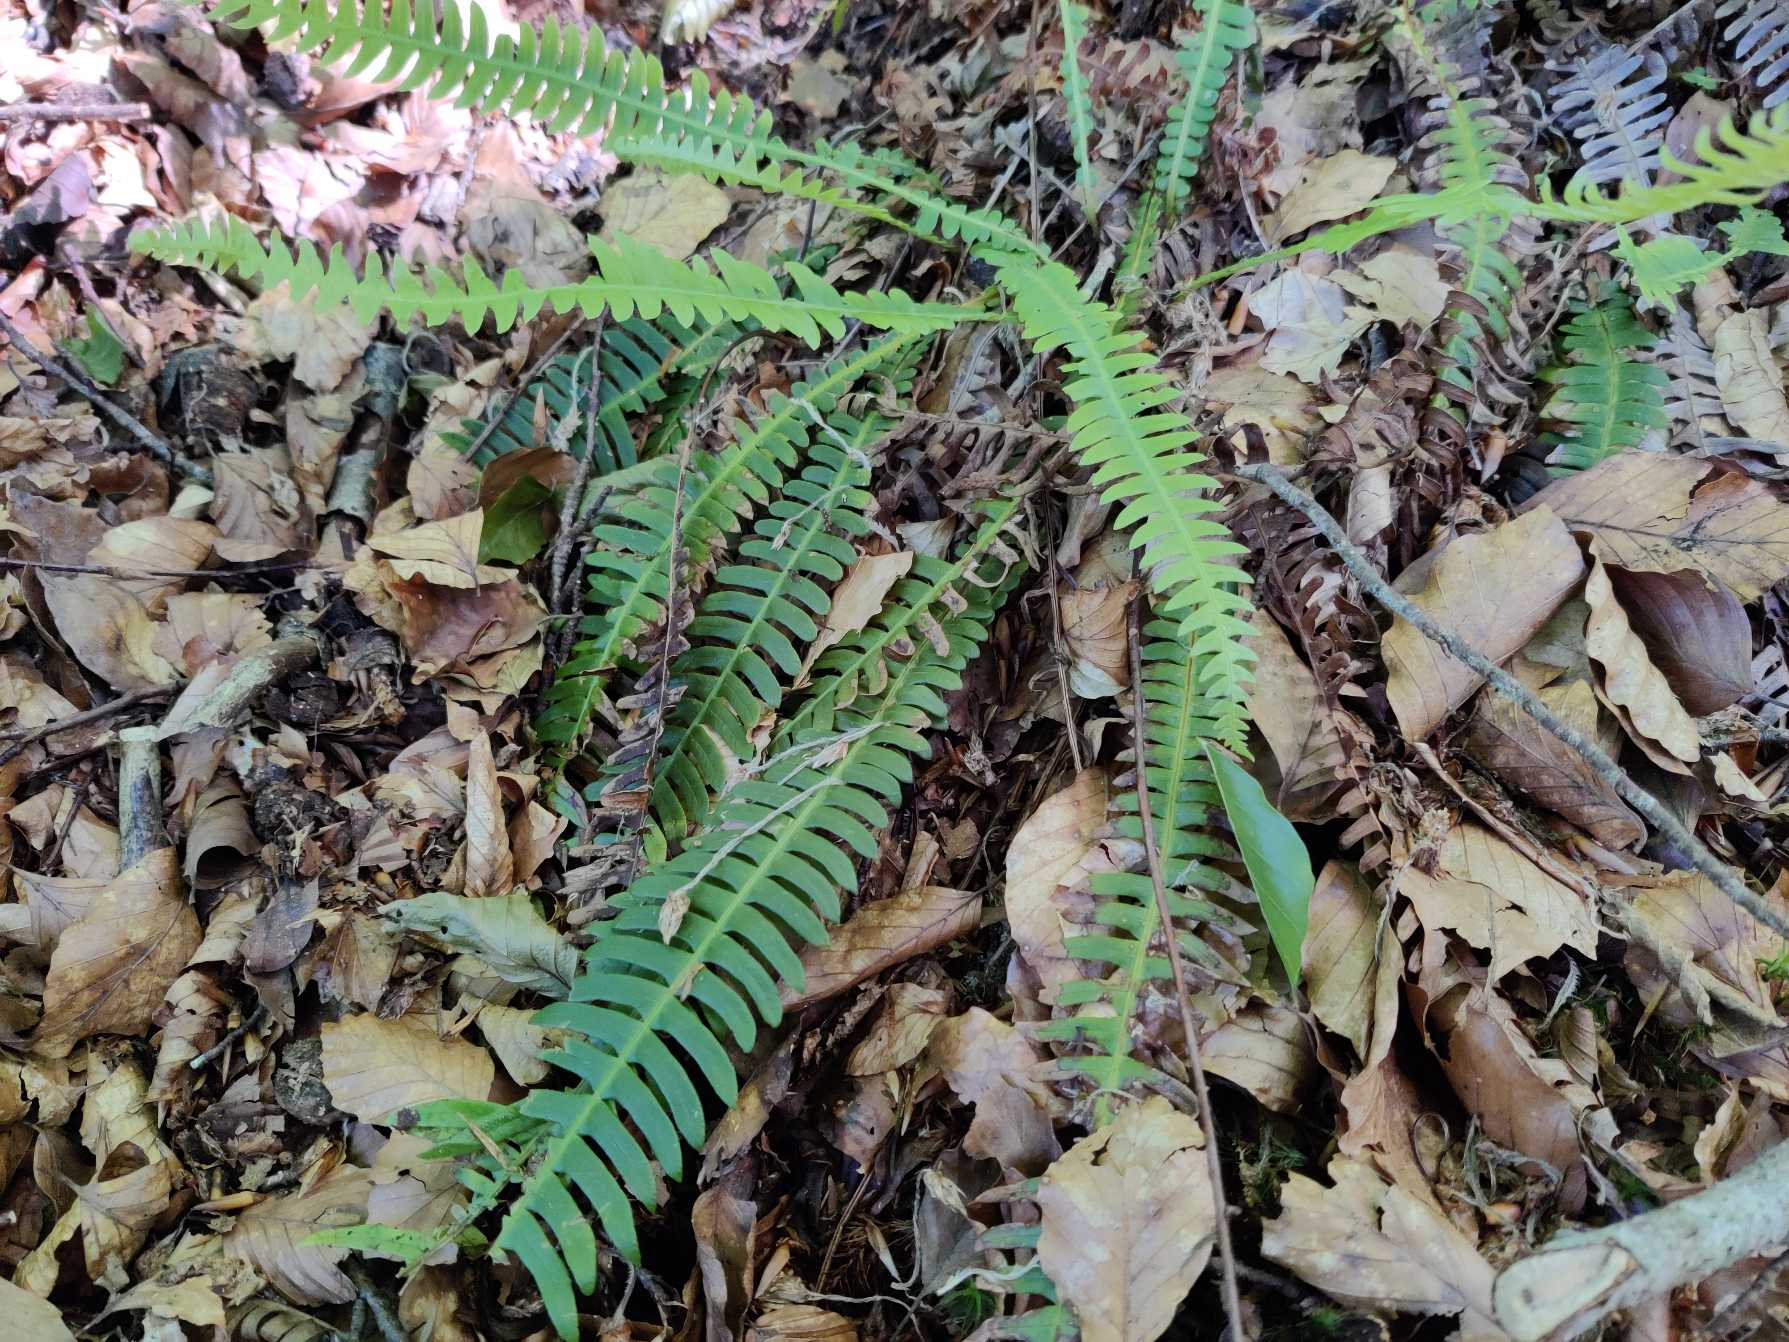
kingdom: Plantae
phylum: Tracheophyta
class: Polypodiopsida
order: Polypodiales
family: Blechnaceae
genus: Struthiopteris
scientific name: Struthiopteris spicant
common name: Kambregne
